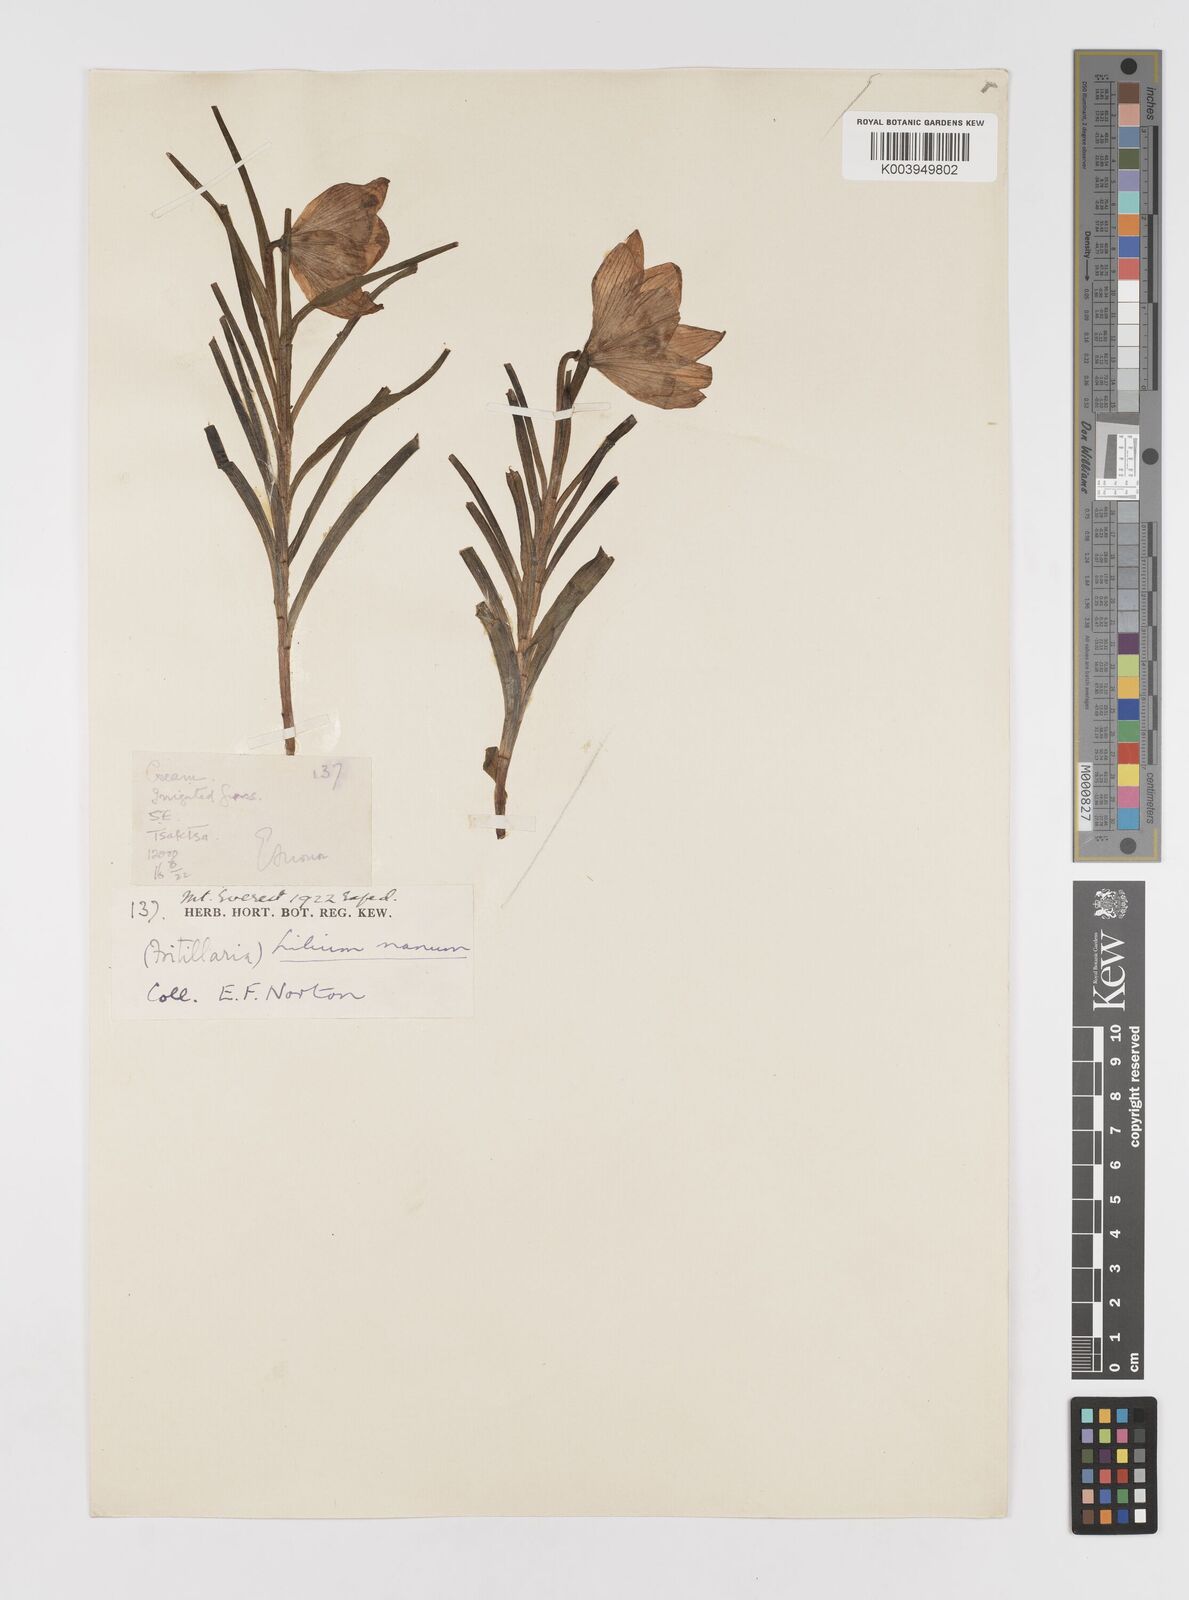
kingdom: Plantae
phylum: Tracheophyta
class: Liliopsida
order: Liliales
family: Liliaceae
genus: Lilium
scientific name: Lilium nanum
